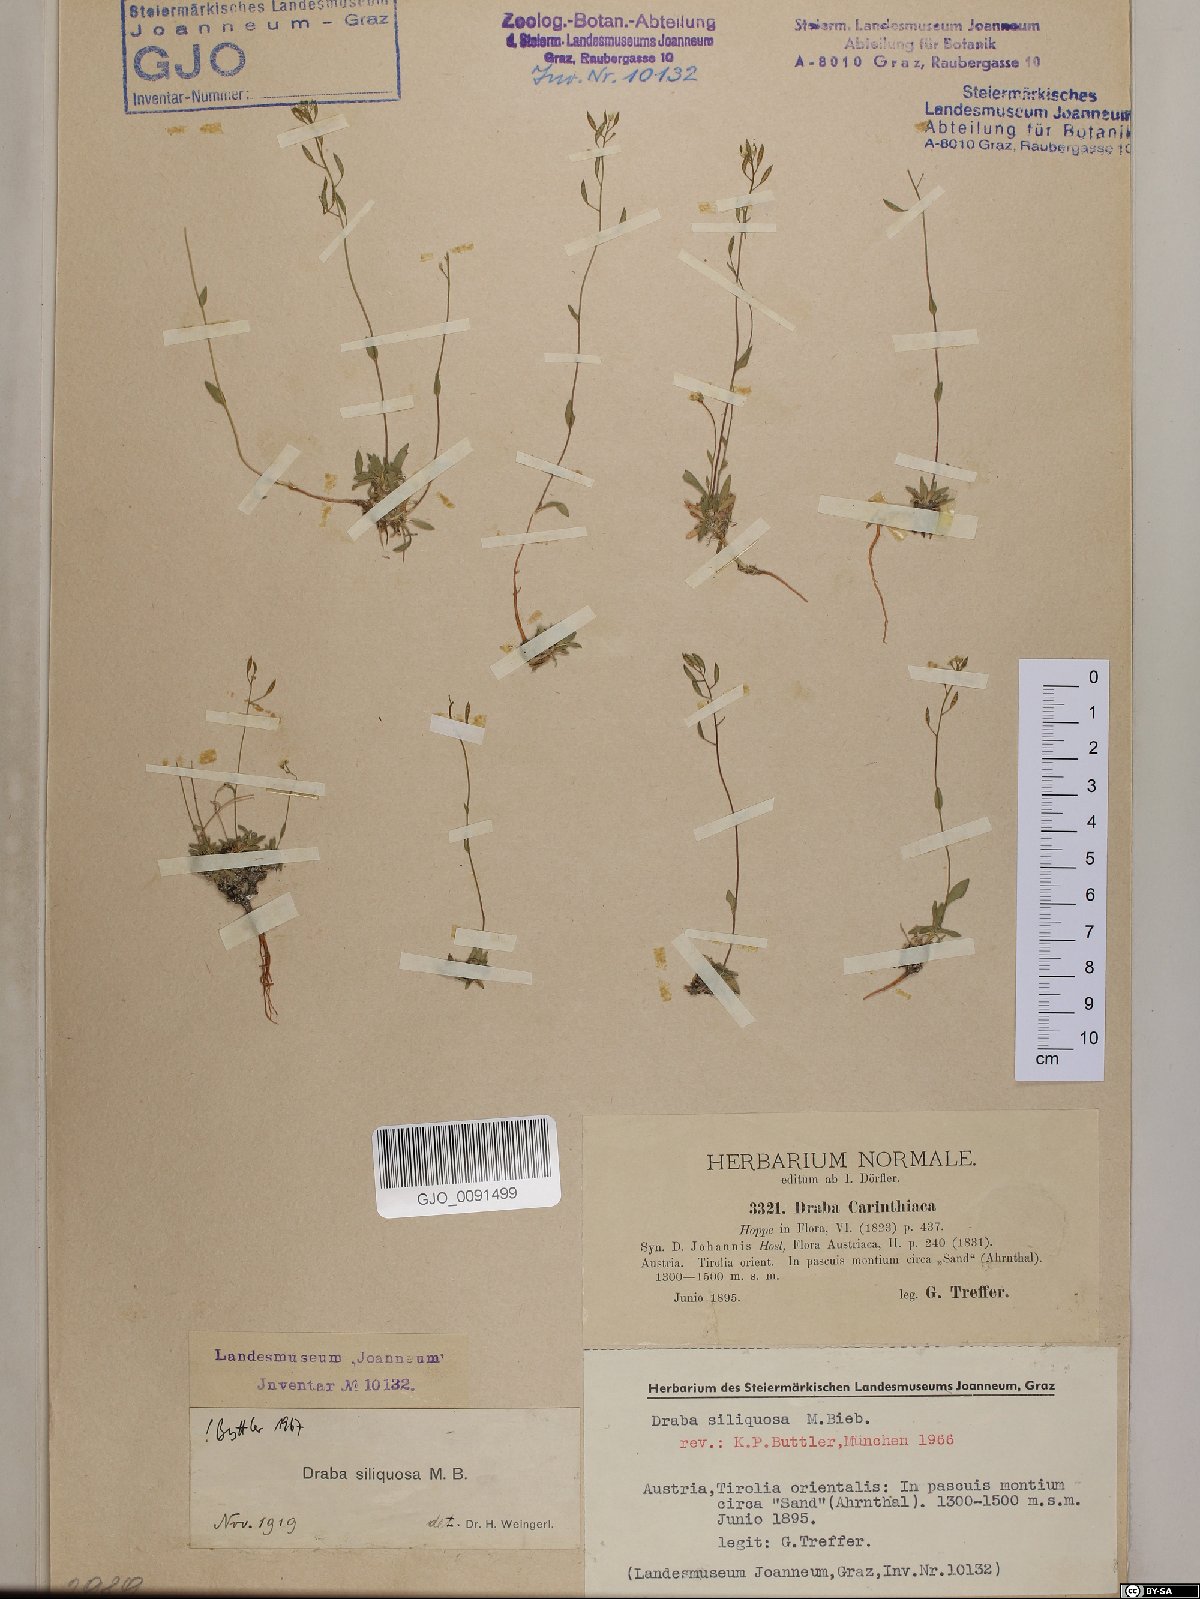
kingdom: Plantae
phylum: Tracheophyta
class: Magnoliopsida
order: Brassicales
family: Brassicaceae
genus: Draba
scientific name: Draba siliquosa
